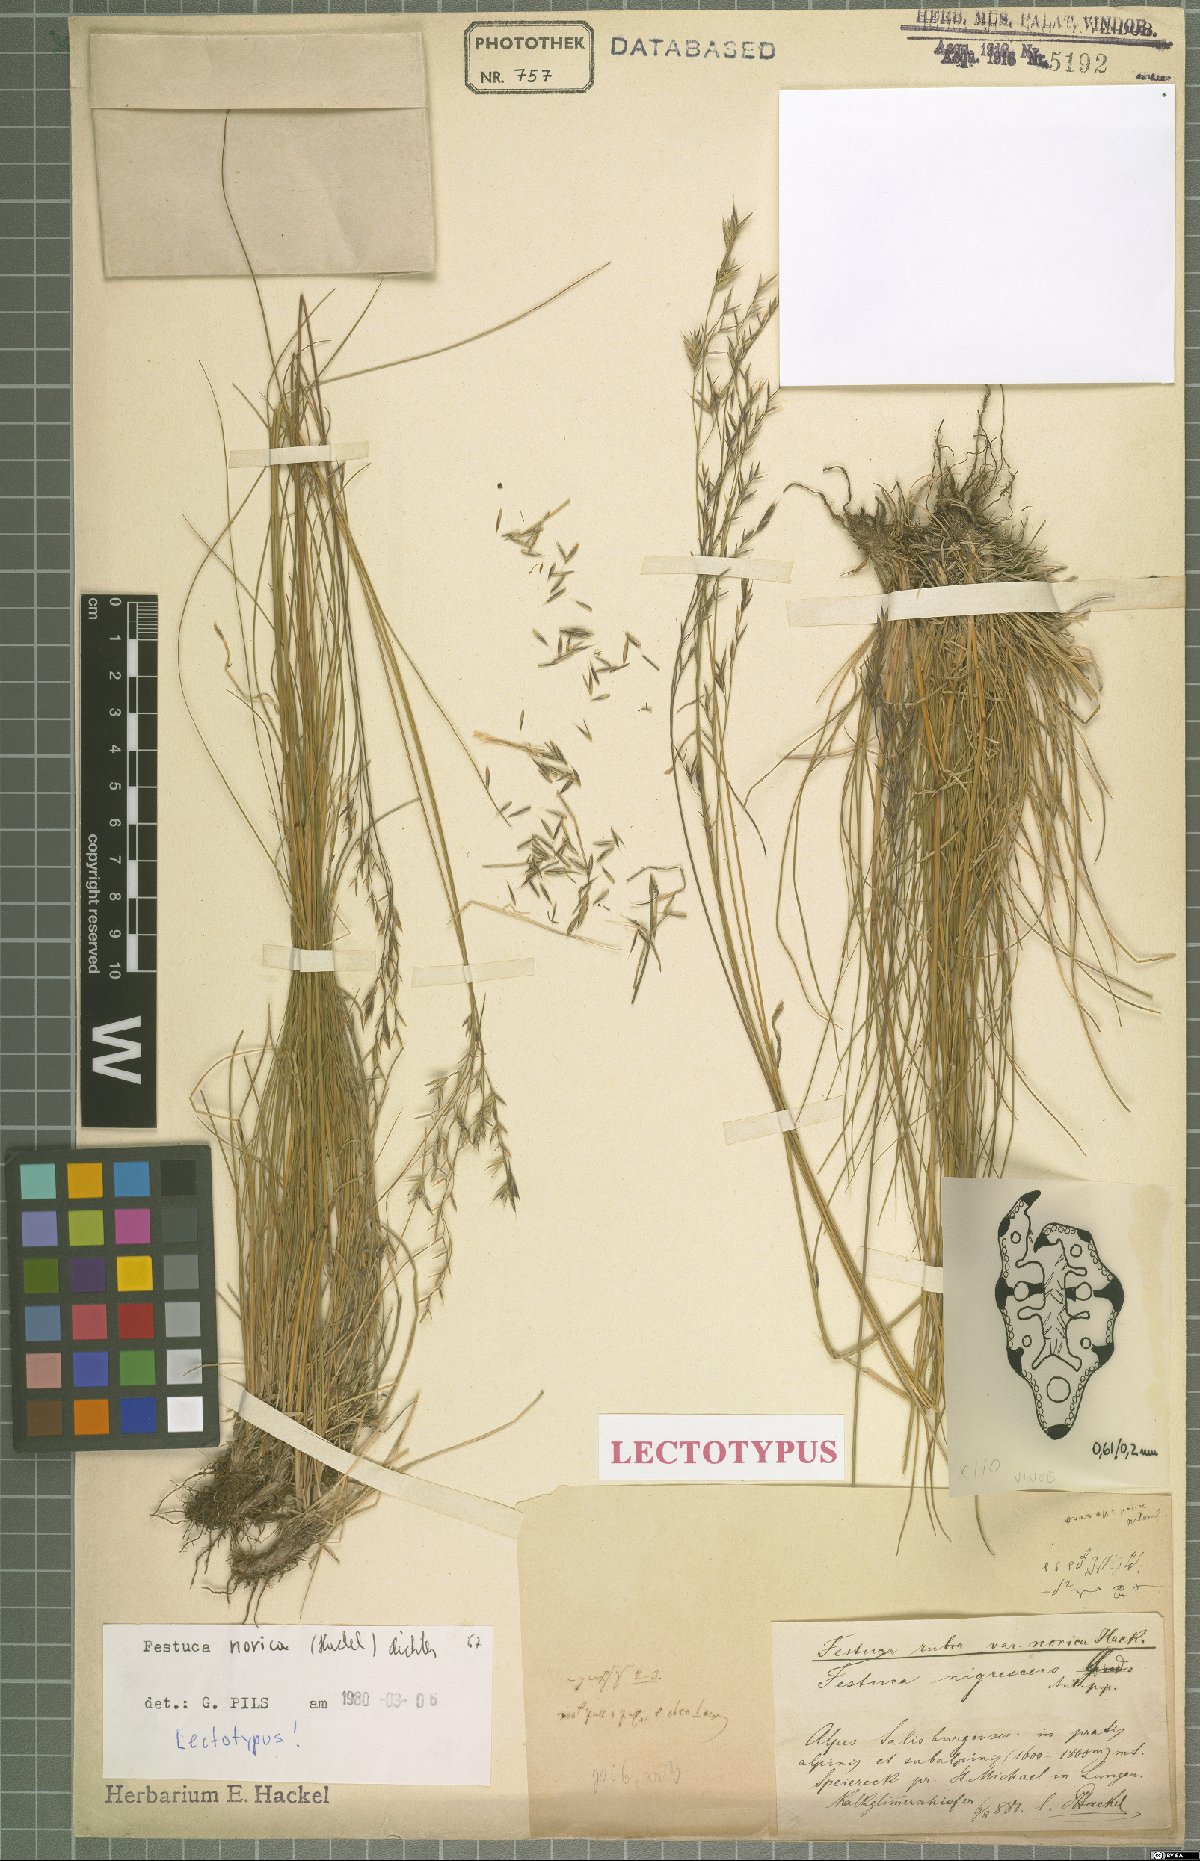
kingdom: Plantae
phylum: Tracheophyta
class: Liliopsida
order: Poales
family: Poaceae
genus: Festuca
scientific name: Festuca norica
